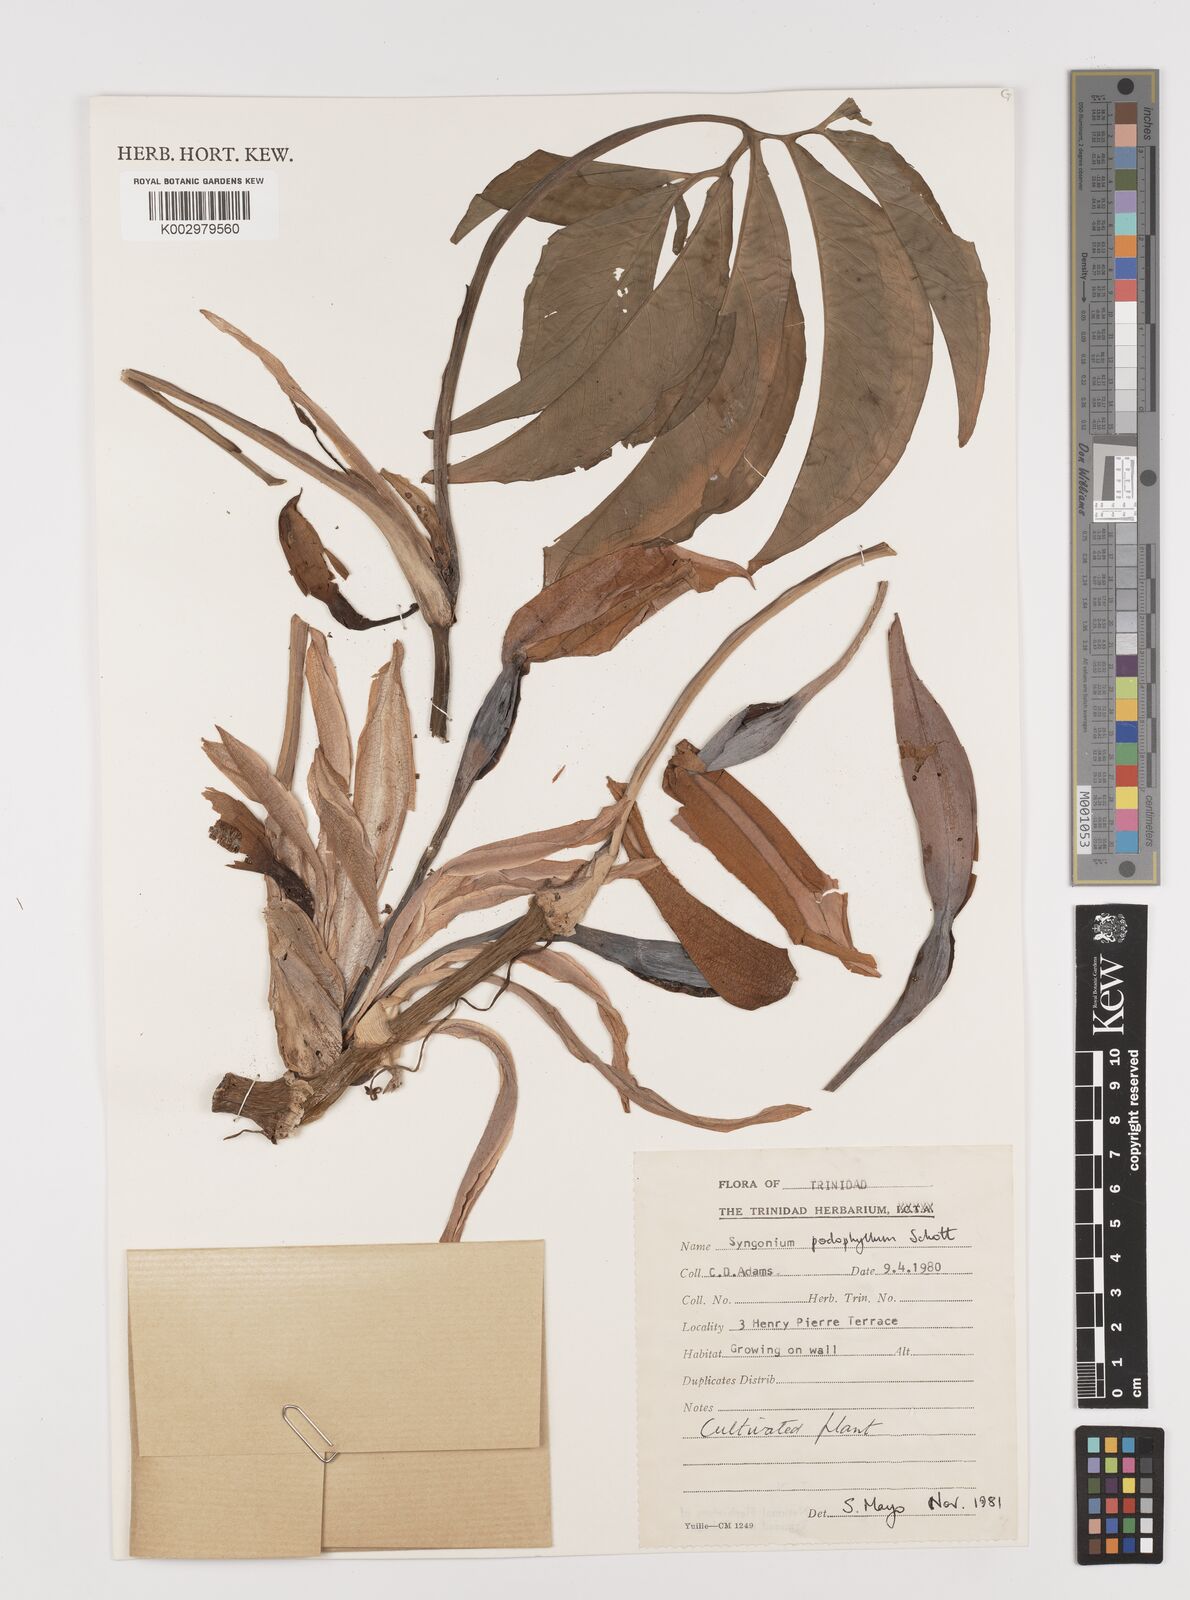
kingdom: Plantae
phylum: Tracheophyta
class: Liliopsida
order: Alismatales
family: Araceae
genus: Syngonium
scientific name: Syngonium podophyllum
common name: American evergreen
